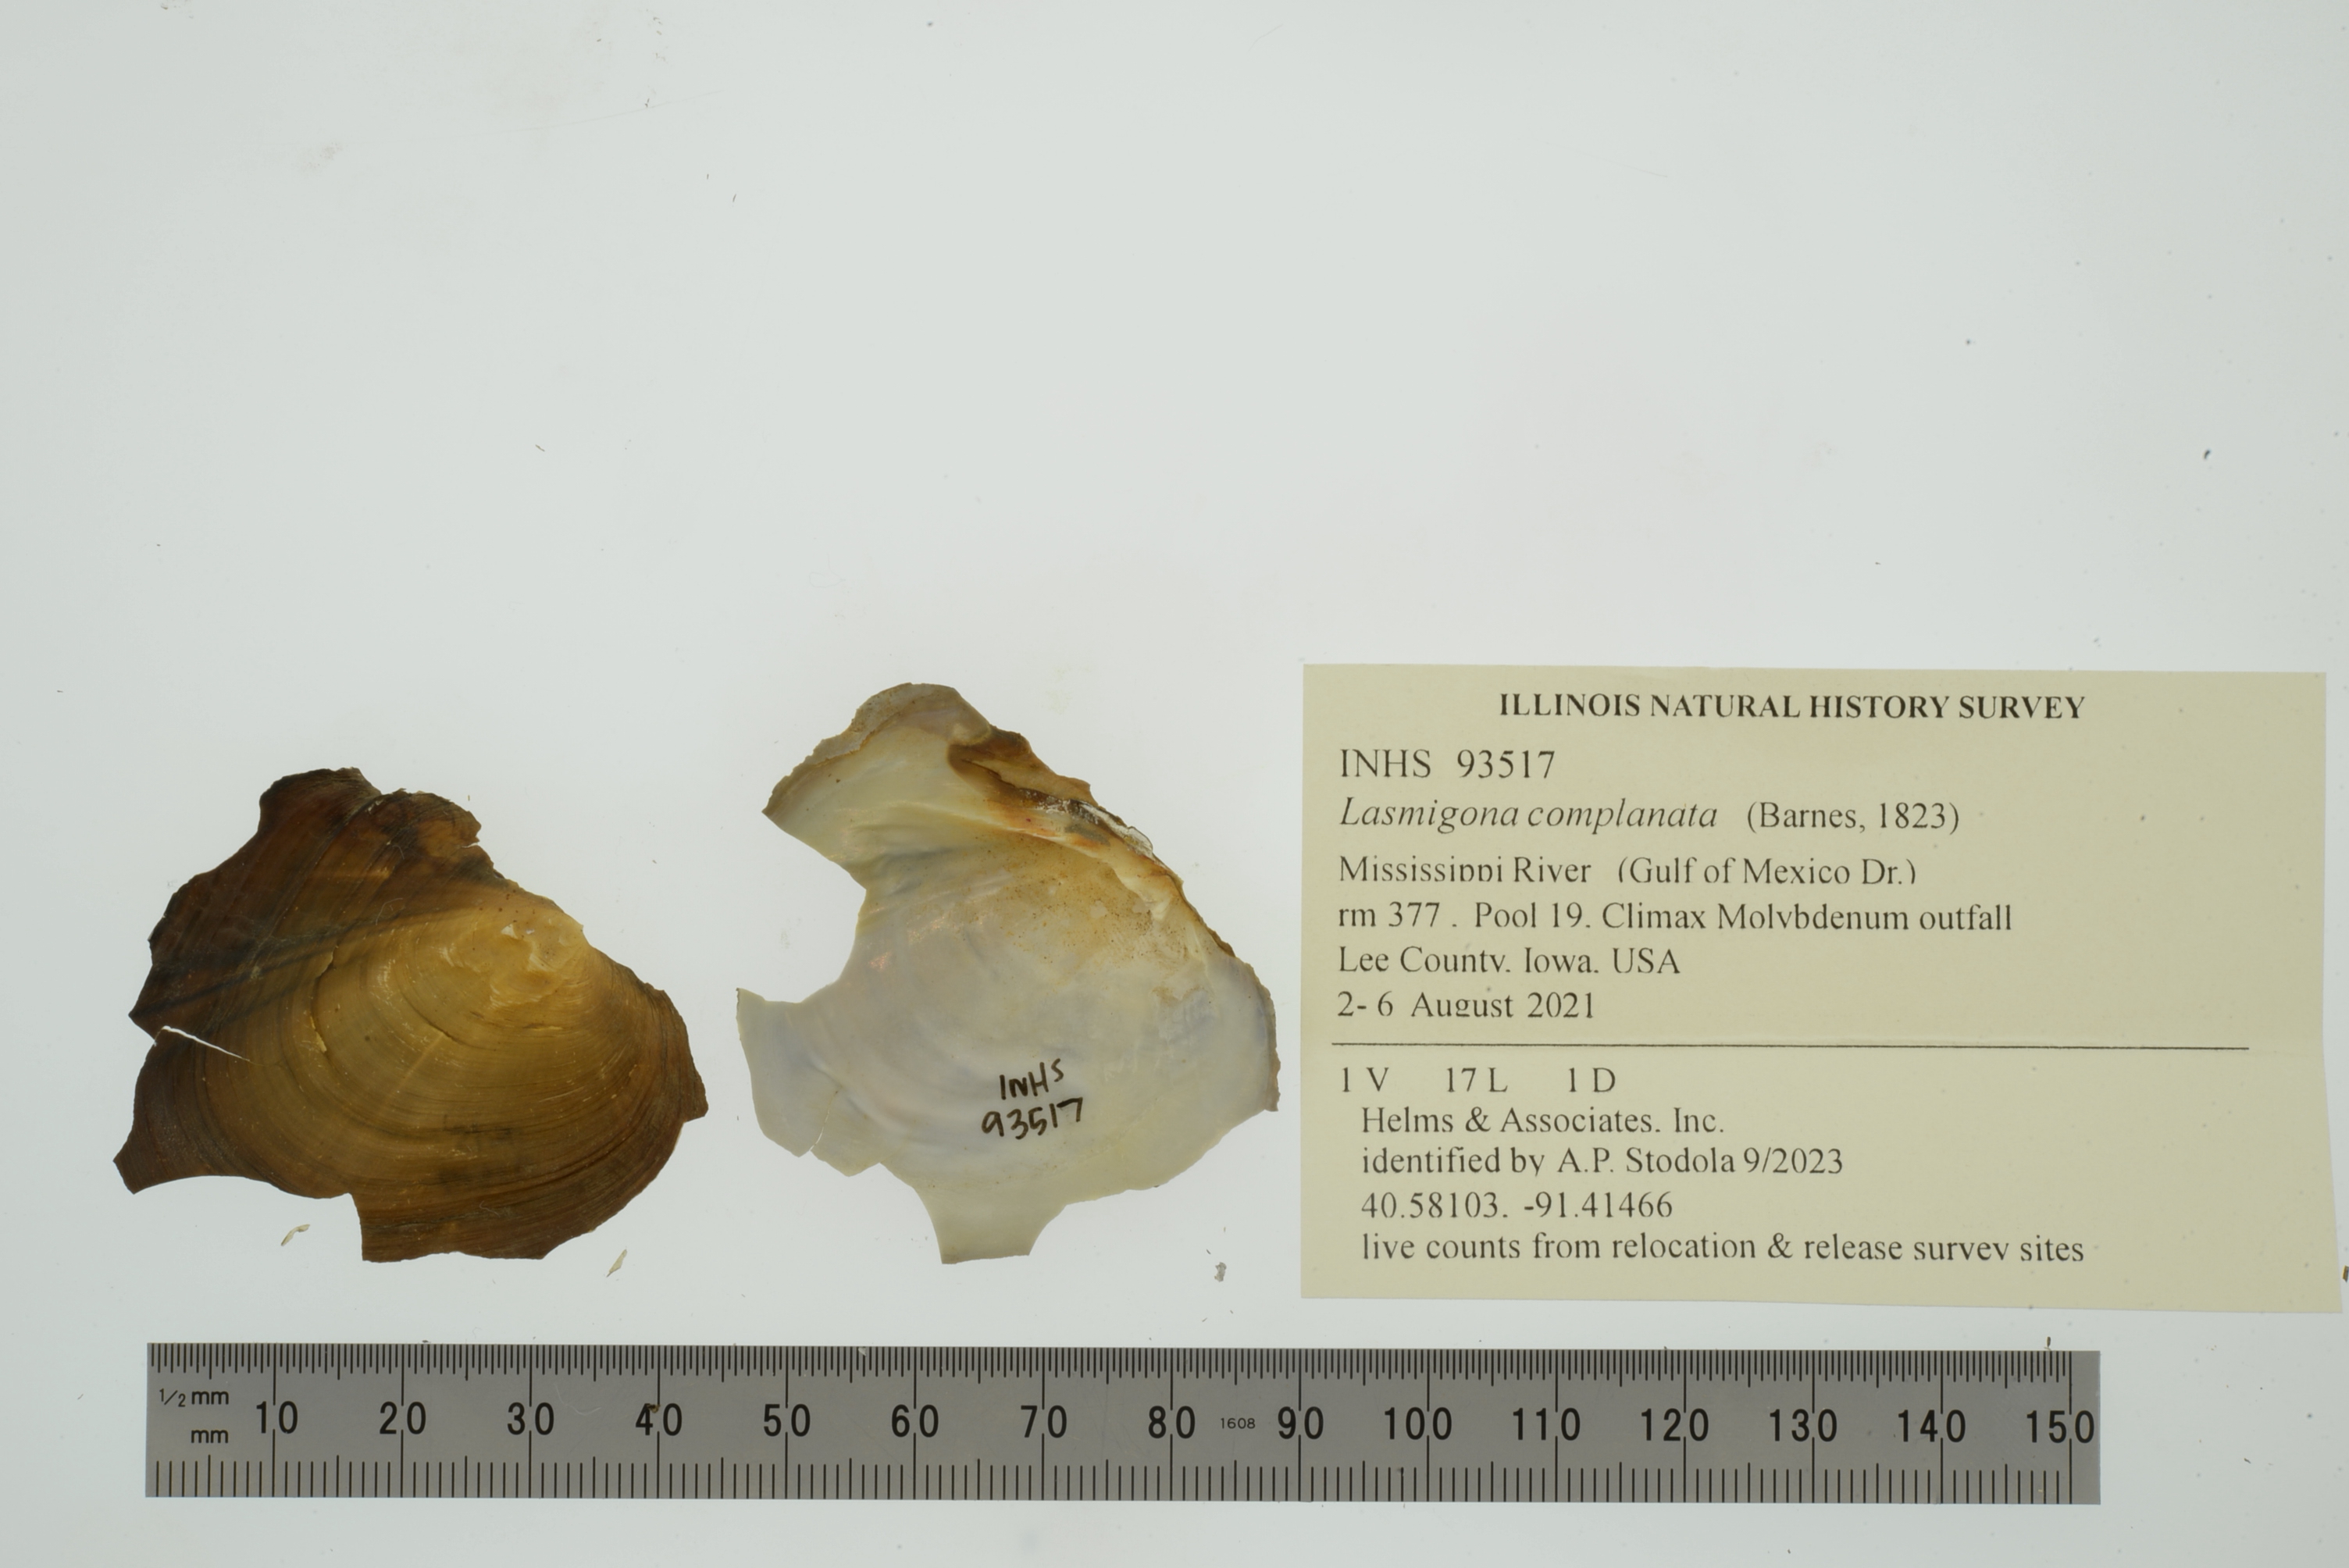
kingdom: Animalia
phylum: Mollusca
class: Bivalvia
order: Unionida
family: Unionidae
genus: Lasmigona
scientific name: Lasmigona complanata
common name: White heelsplitter
